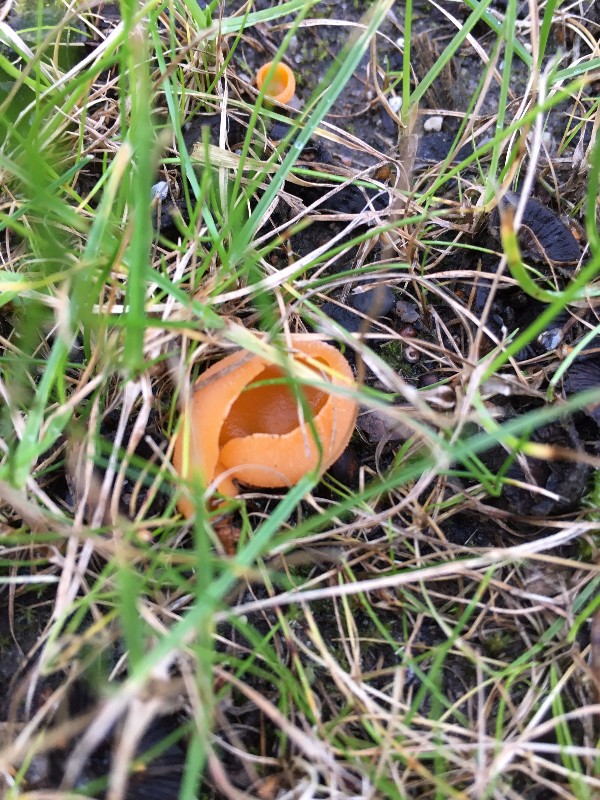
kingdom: Fungi
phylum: Ascomycota
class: Pezizomycetes
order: Pezizales
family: Pyronemataceae
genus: Aleuria
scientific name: Aleuria aurantia
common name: almindelig orangebæger
